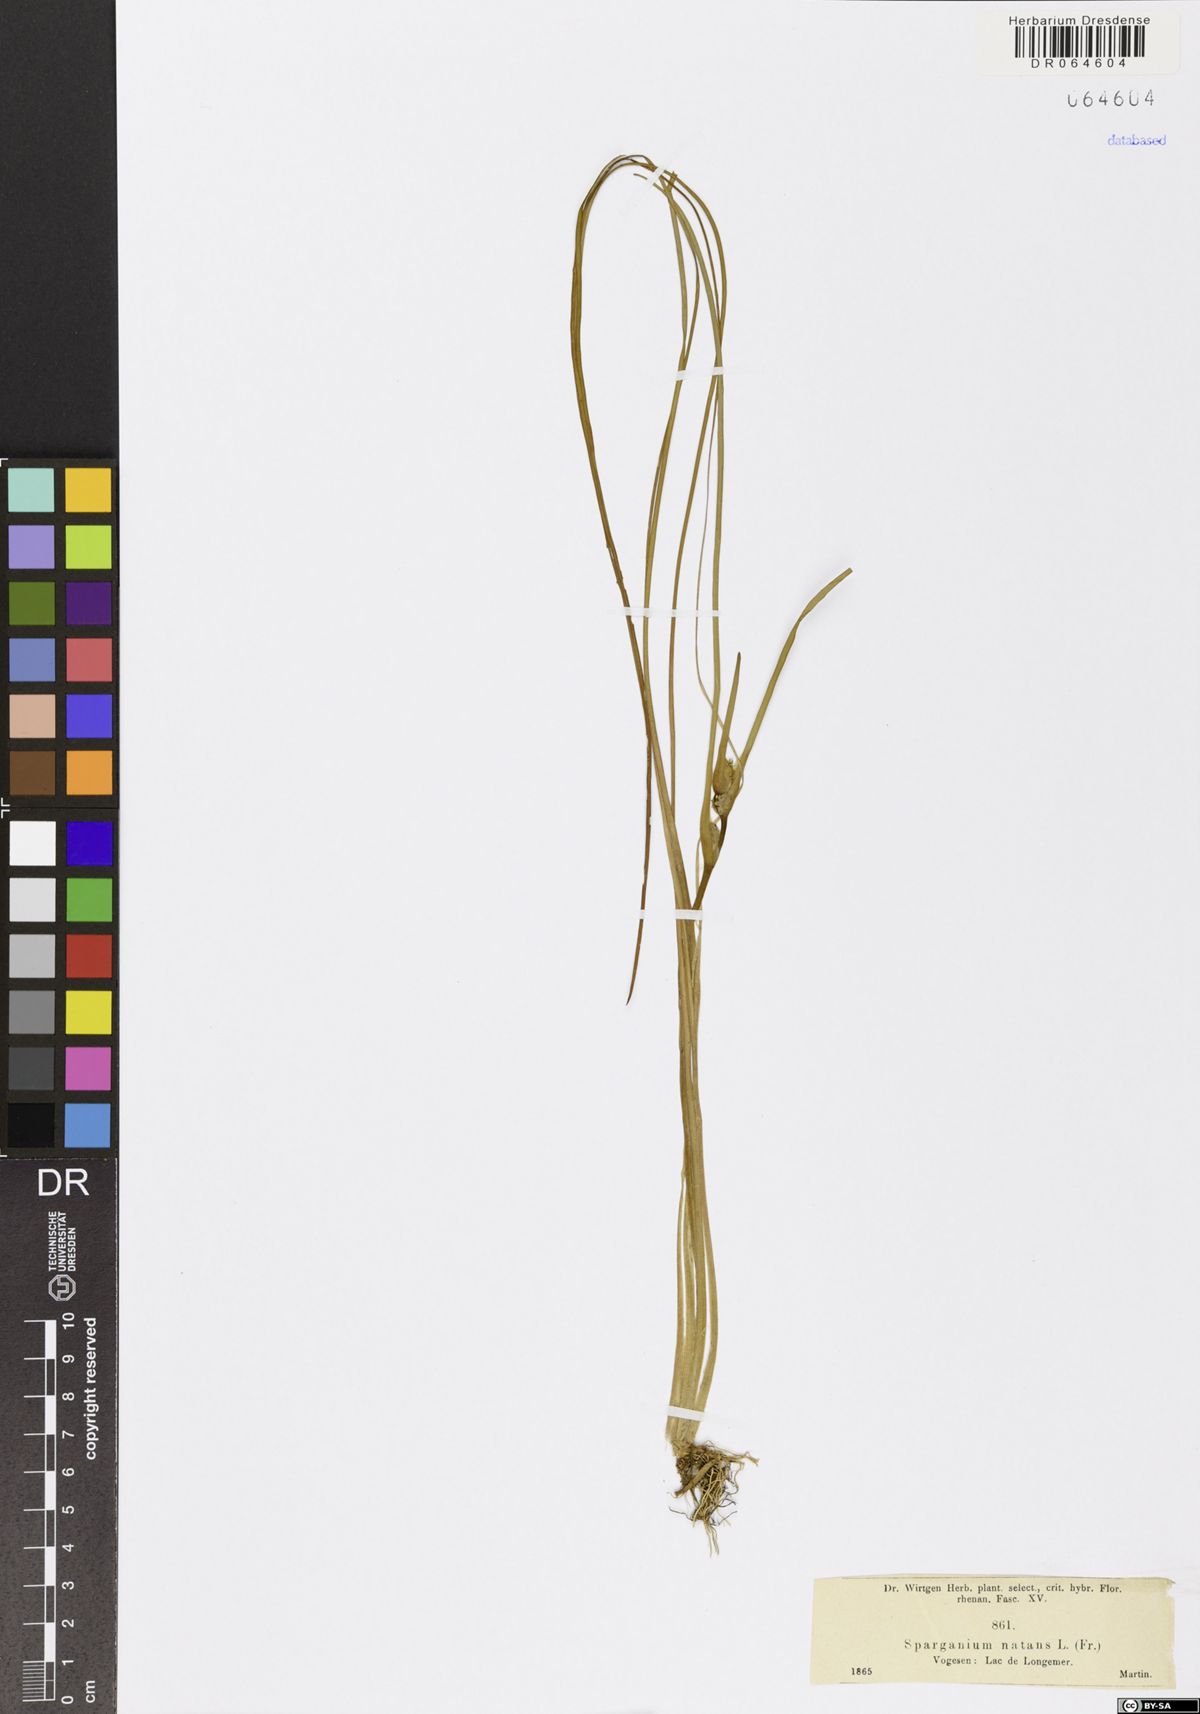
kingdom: Plantae
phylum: Tracheophyta
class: Liliopsida
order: Poales
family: Typhaceae
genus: Sparganium
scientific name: Sparganium natans
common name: Least bur-reed
